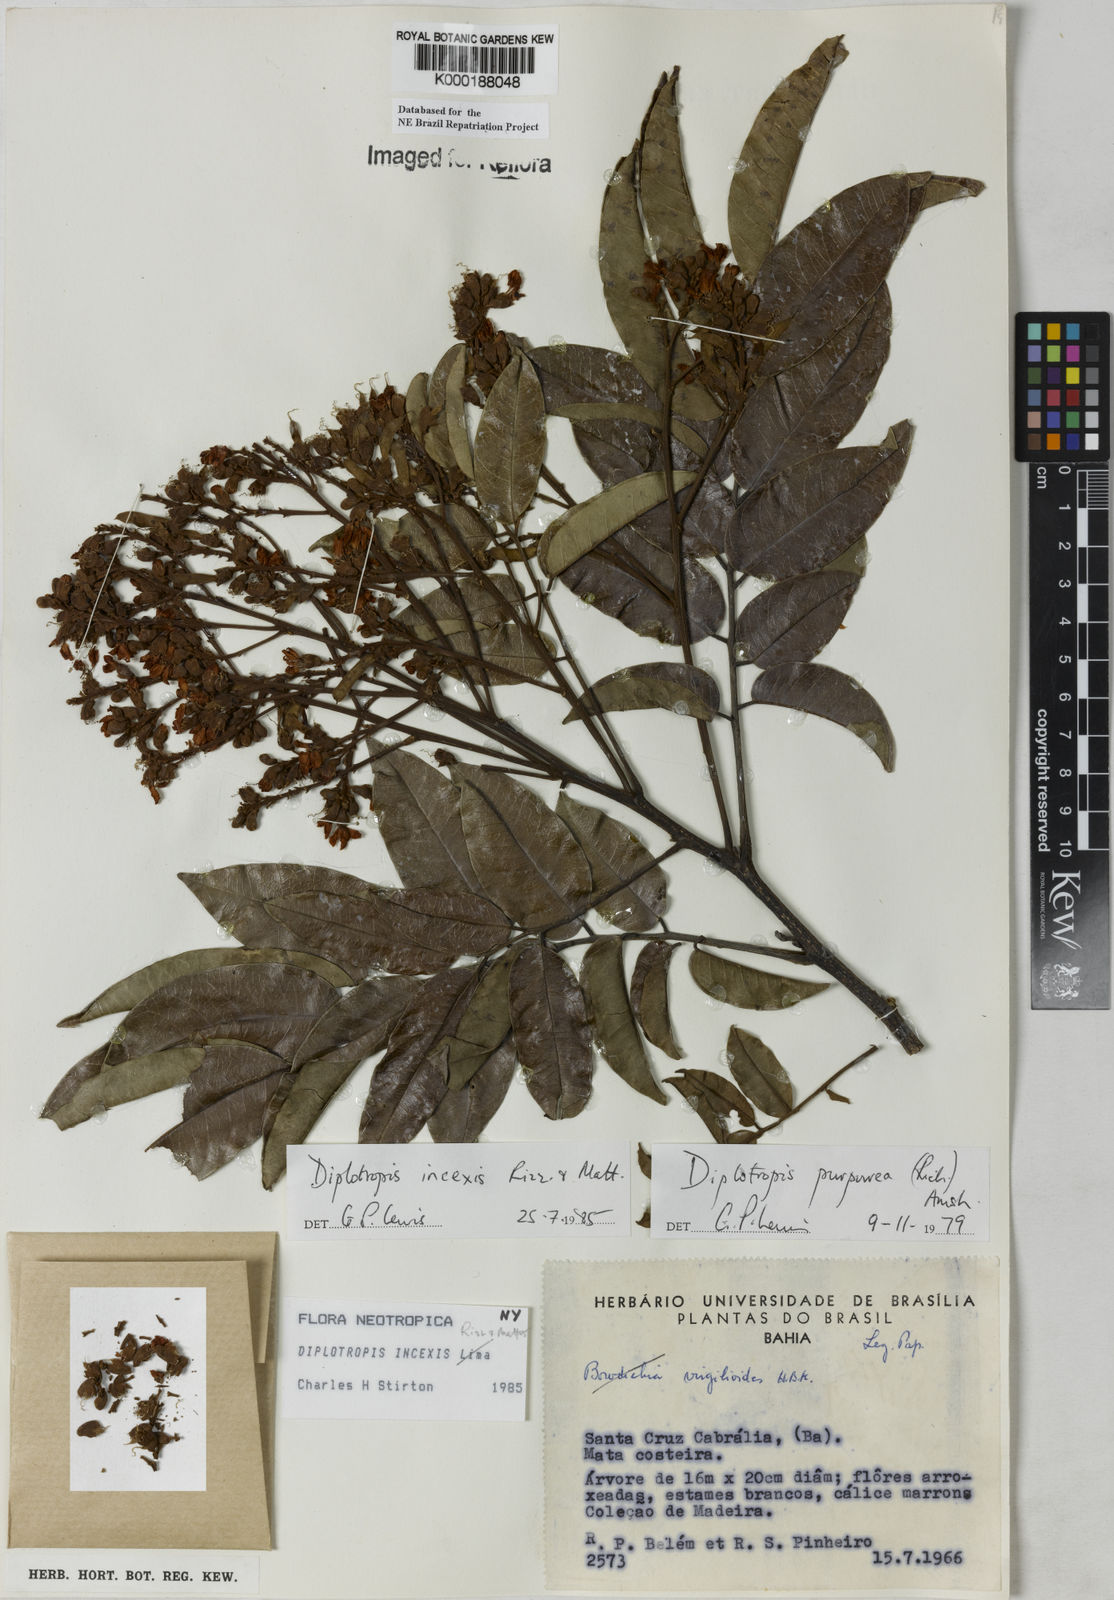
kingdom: Plantae
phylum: Tracheophyta
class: Magnoliopsida
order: Fabales
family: Fabaceae
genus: Diplotropis
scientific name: Diplotropis incexis
